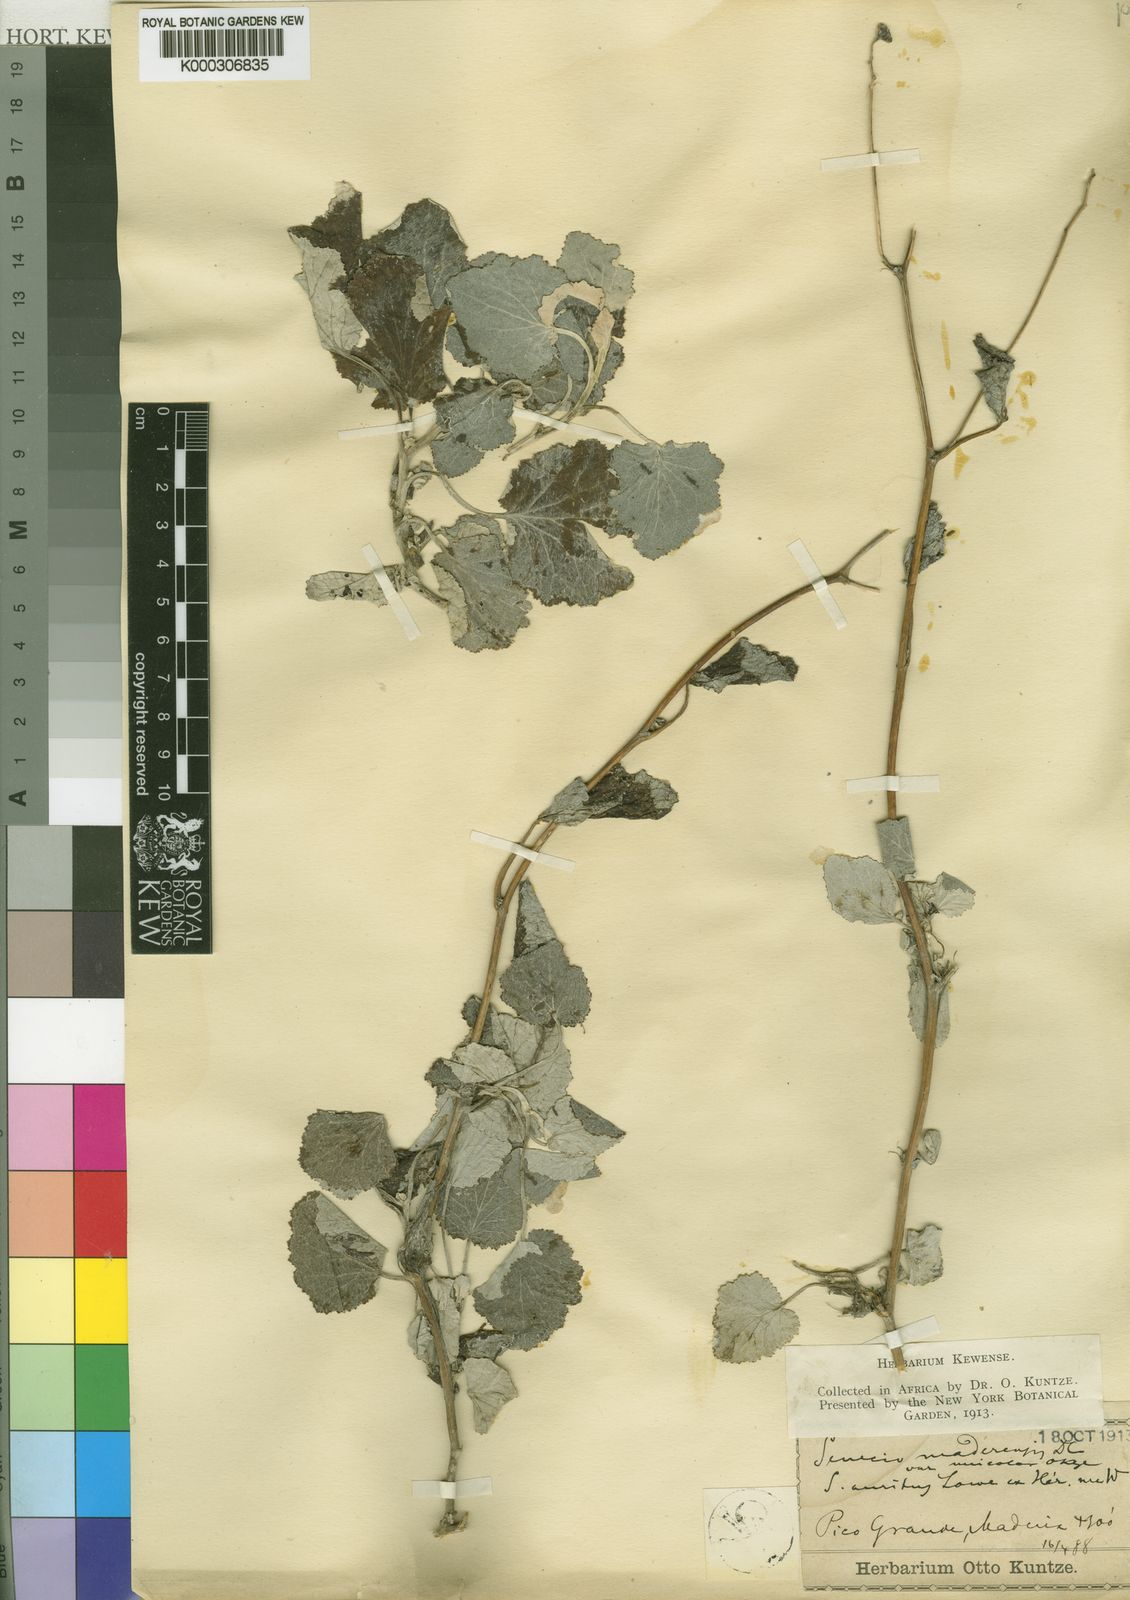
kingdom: Plantae
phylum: Tracheophyta
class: Magnoliopsida
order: Asterales
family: Asteraceae
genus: Pericallis
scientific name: Pericallis
